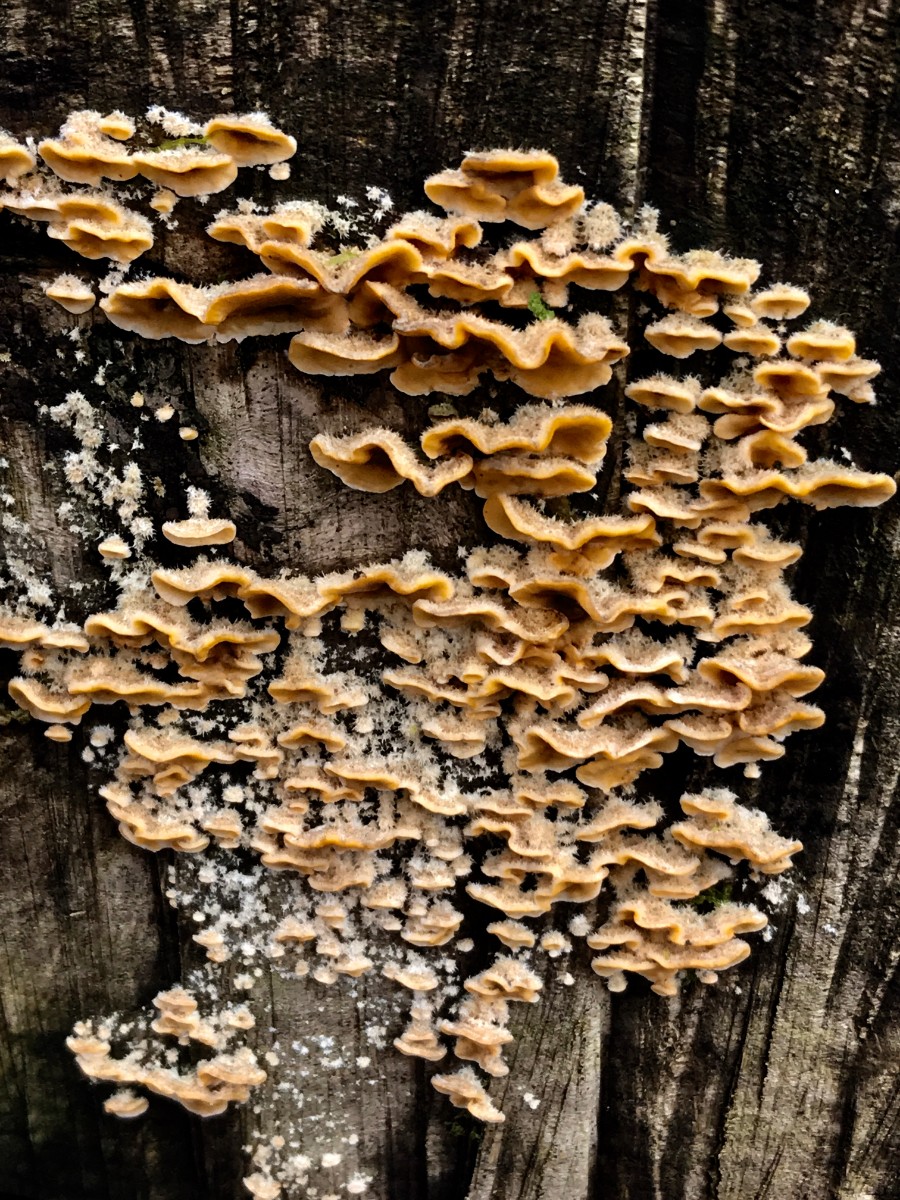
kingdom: Fungi
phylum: Basidiomycota
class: Agaricomycetes
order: Russulales
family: Stereaceae
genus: Stereum
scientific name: Stereum hirsutum
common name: håret lædersvamp
